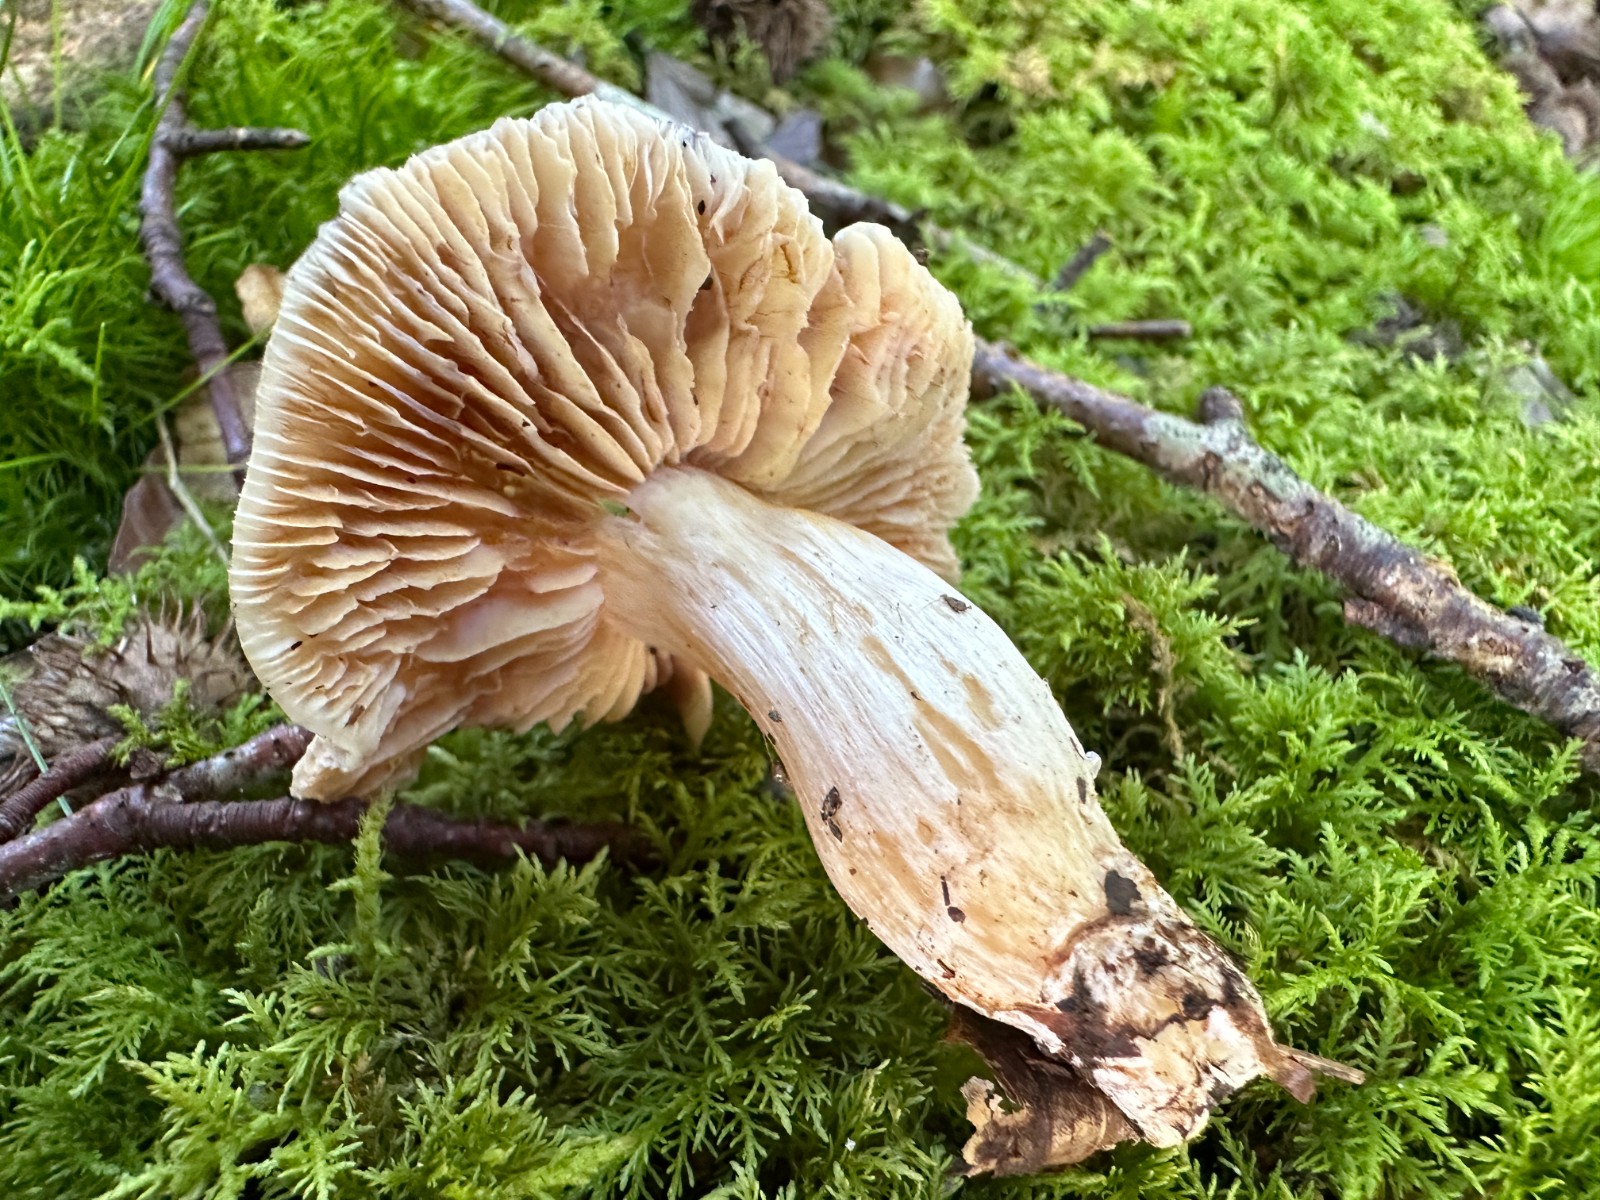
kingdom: Fungi
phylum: Basidiomycota
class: Agaricomycetes
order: Agaricales
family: Cortinariaceae
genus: Thaxterogaster
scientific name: Thaxterogaster croceocoeruleus
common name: blågullig slørhat
